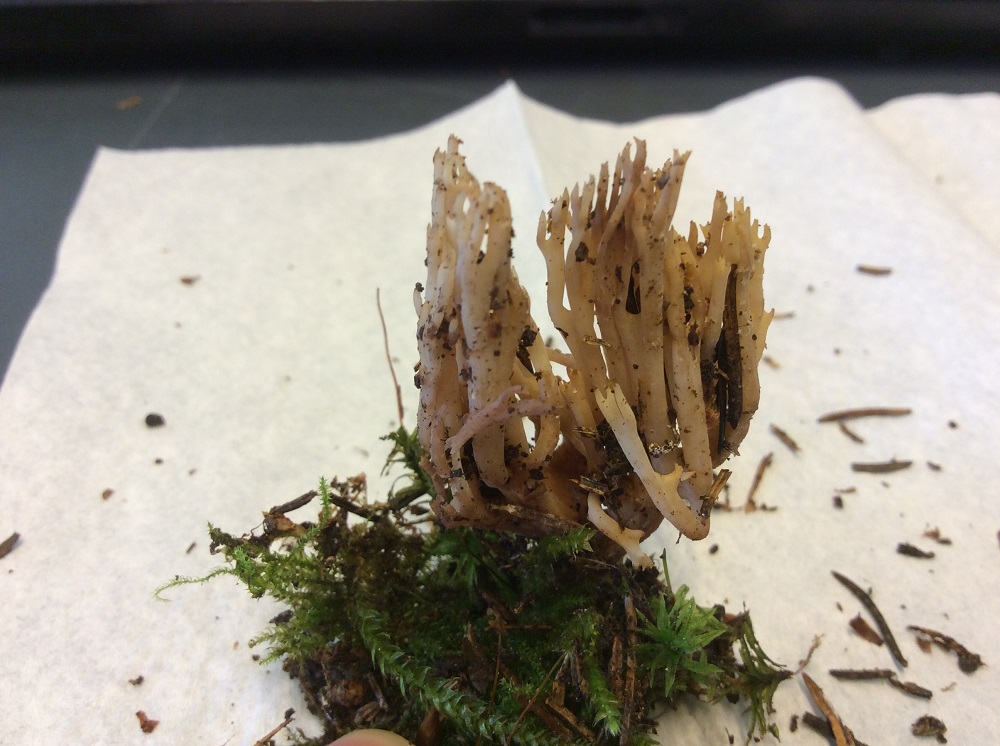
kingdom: Fungi
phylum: Basidiomycota
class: Agaricomycetes
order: Gomphales
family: Gomphaceae
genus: Phaeoclavulina
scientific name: Phaeoclavulina eumorpha
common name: gran-koralsvamp
